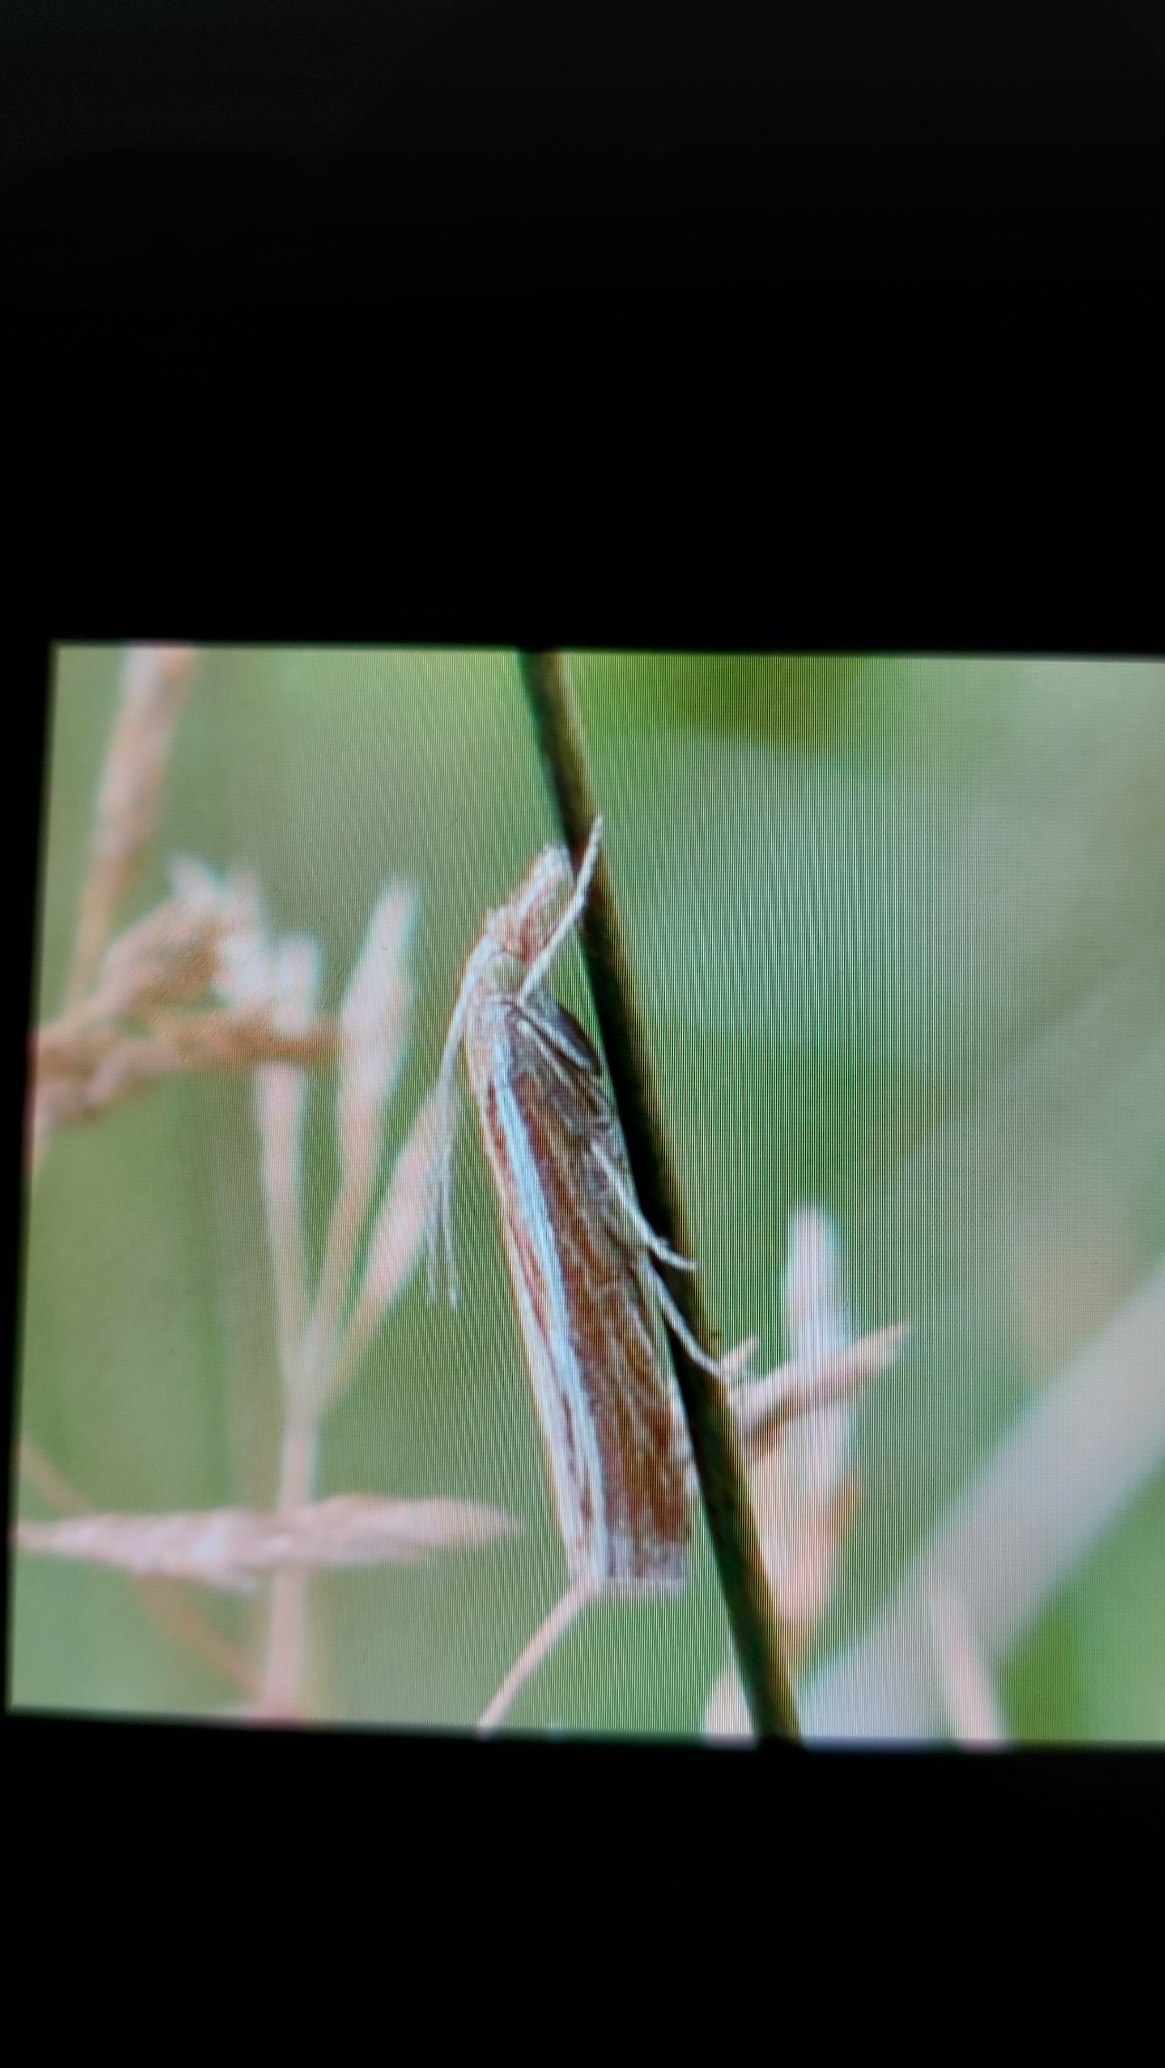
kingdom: Animalia
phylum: Arthropoda
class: Insecta
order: Lepidoptera
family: Crambidae
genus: Agriphila
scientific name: Agriphila tristellus
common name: Okkergult græsmøl
